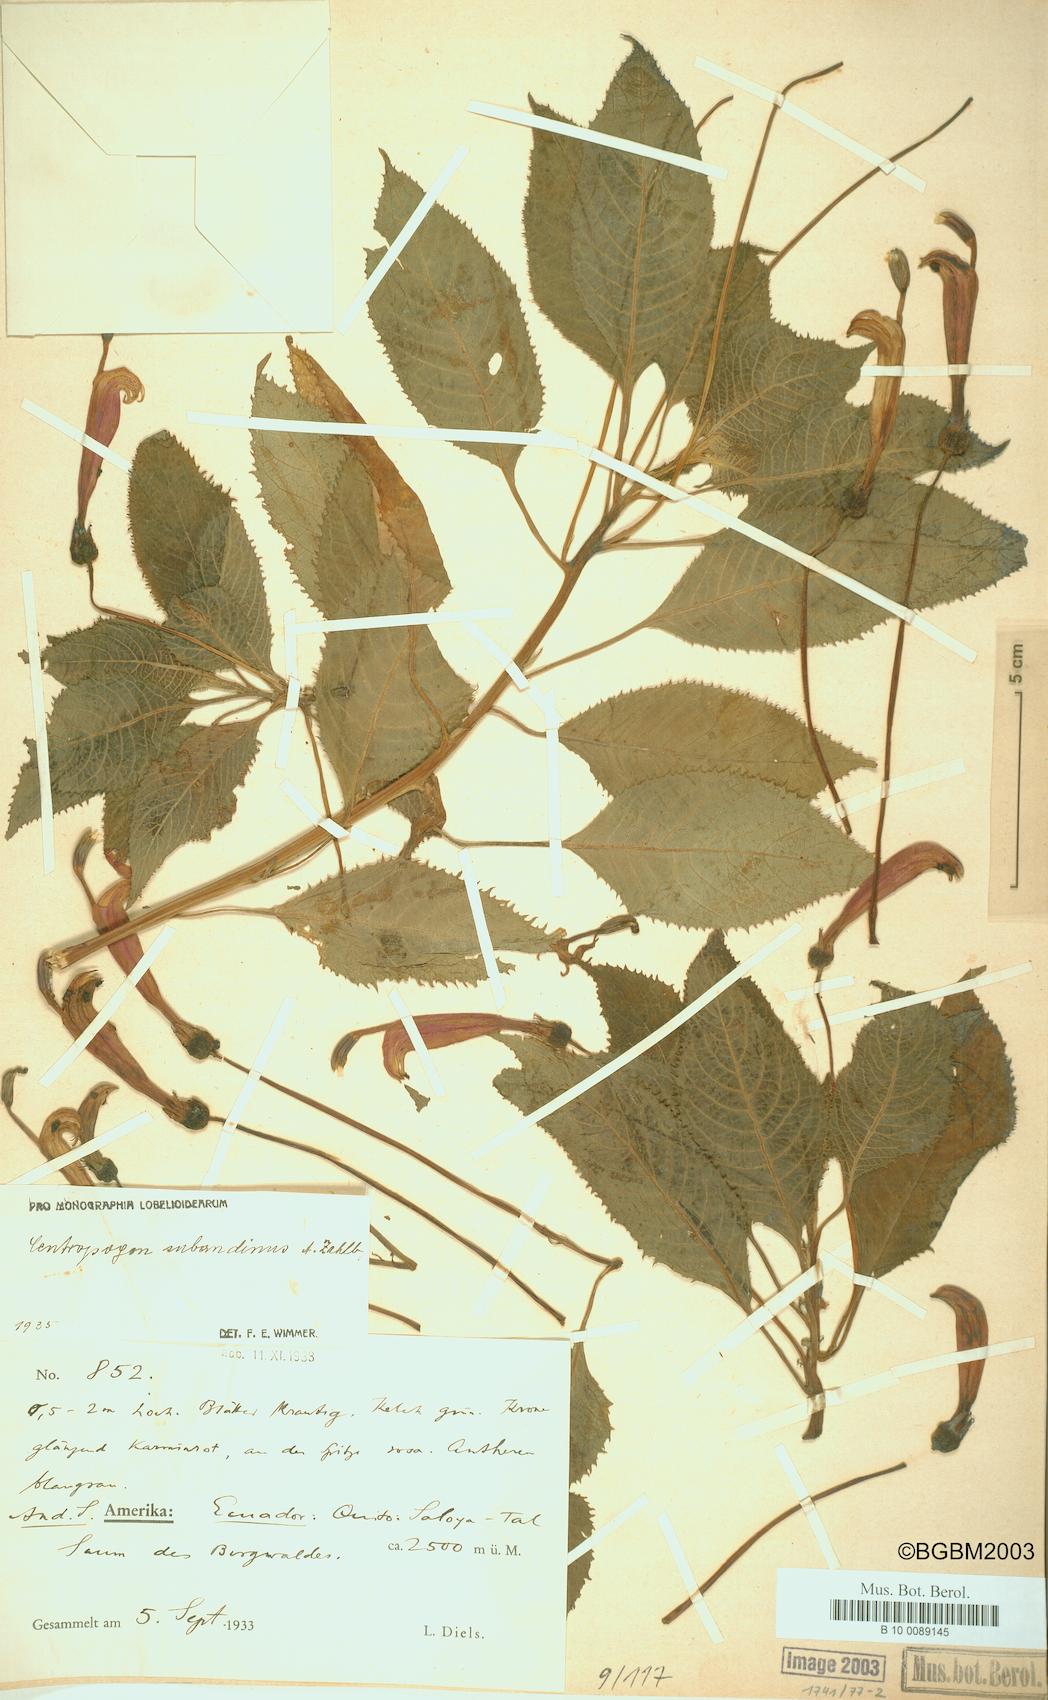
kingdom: Plantae
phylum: Tracheophyta
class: Magnoliopsida
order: Asterales
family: Campanulaceae
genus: Centropogon
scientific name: Centropogon subandinus
